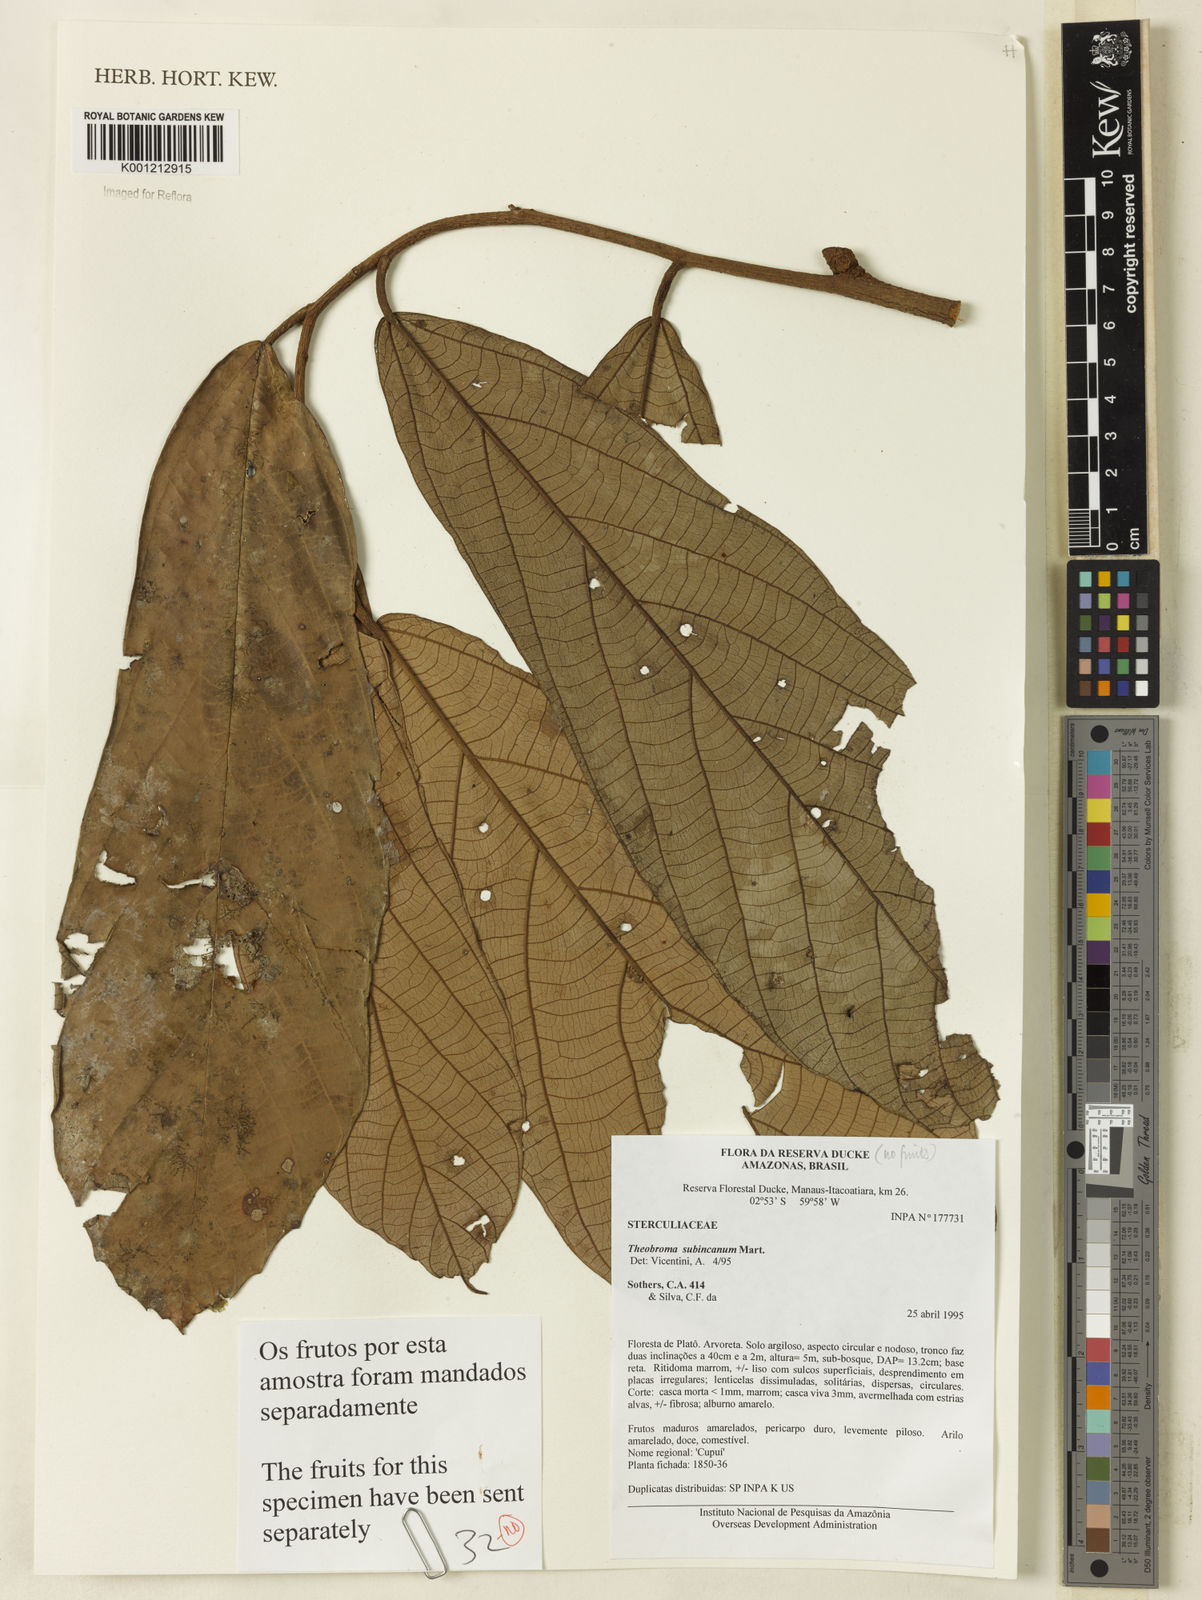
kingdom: Plantae
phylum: Tracheophyta
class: Magnoliopsida
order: Malvales
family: Malvaceae
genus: Theobroma
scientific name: Theobroma subincanum
